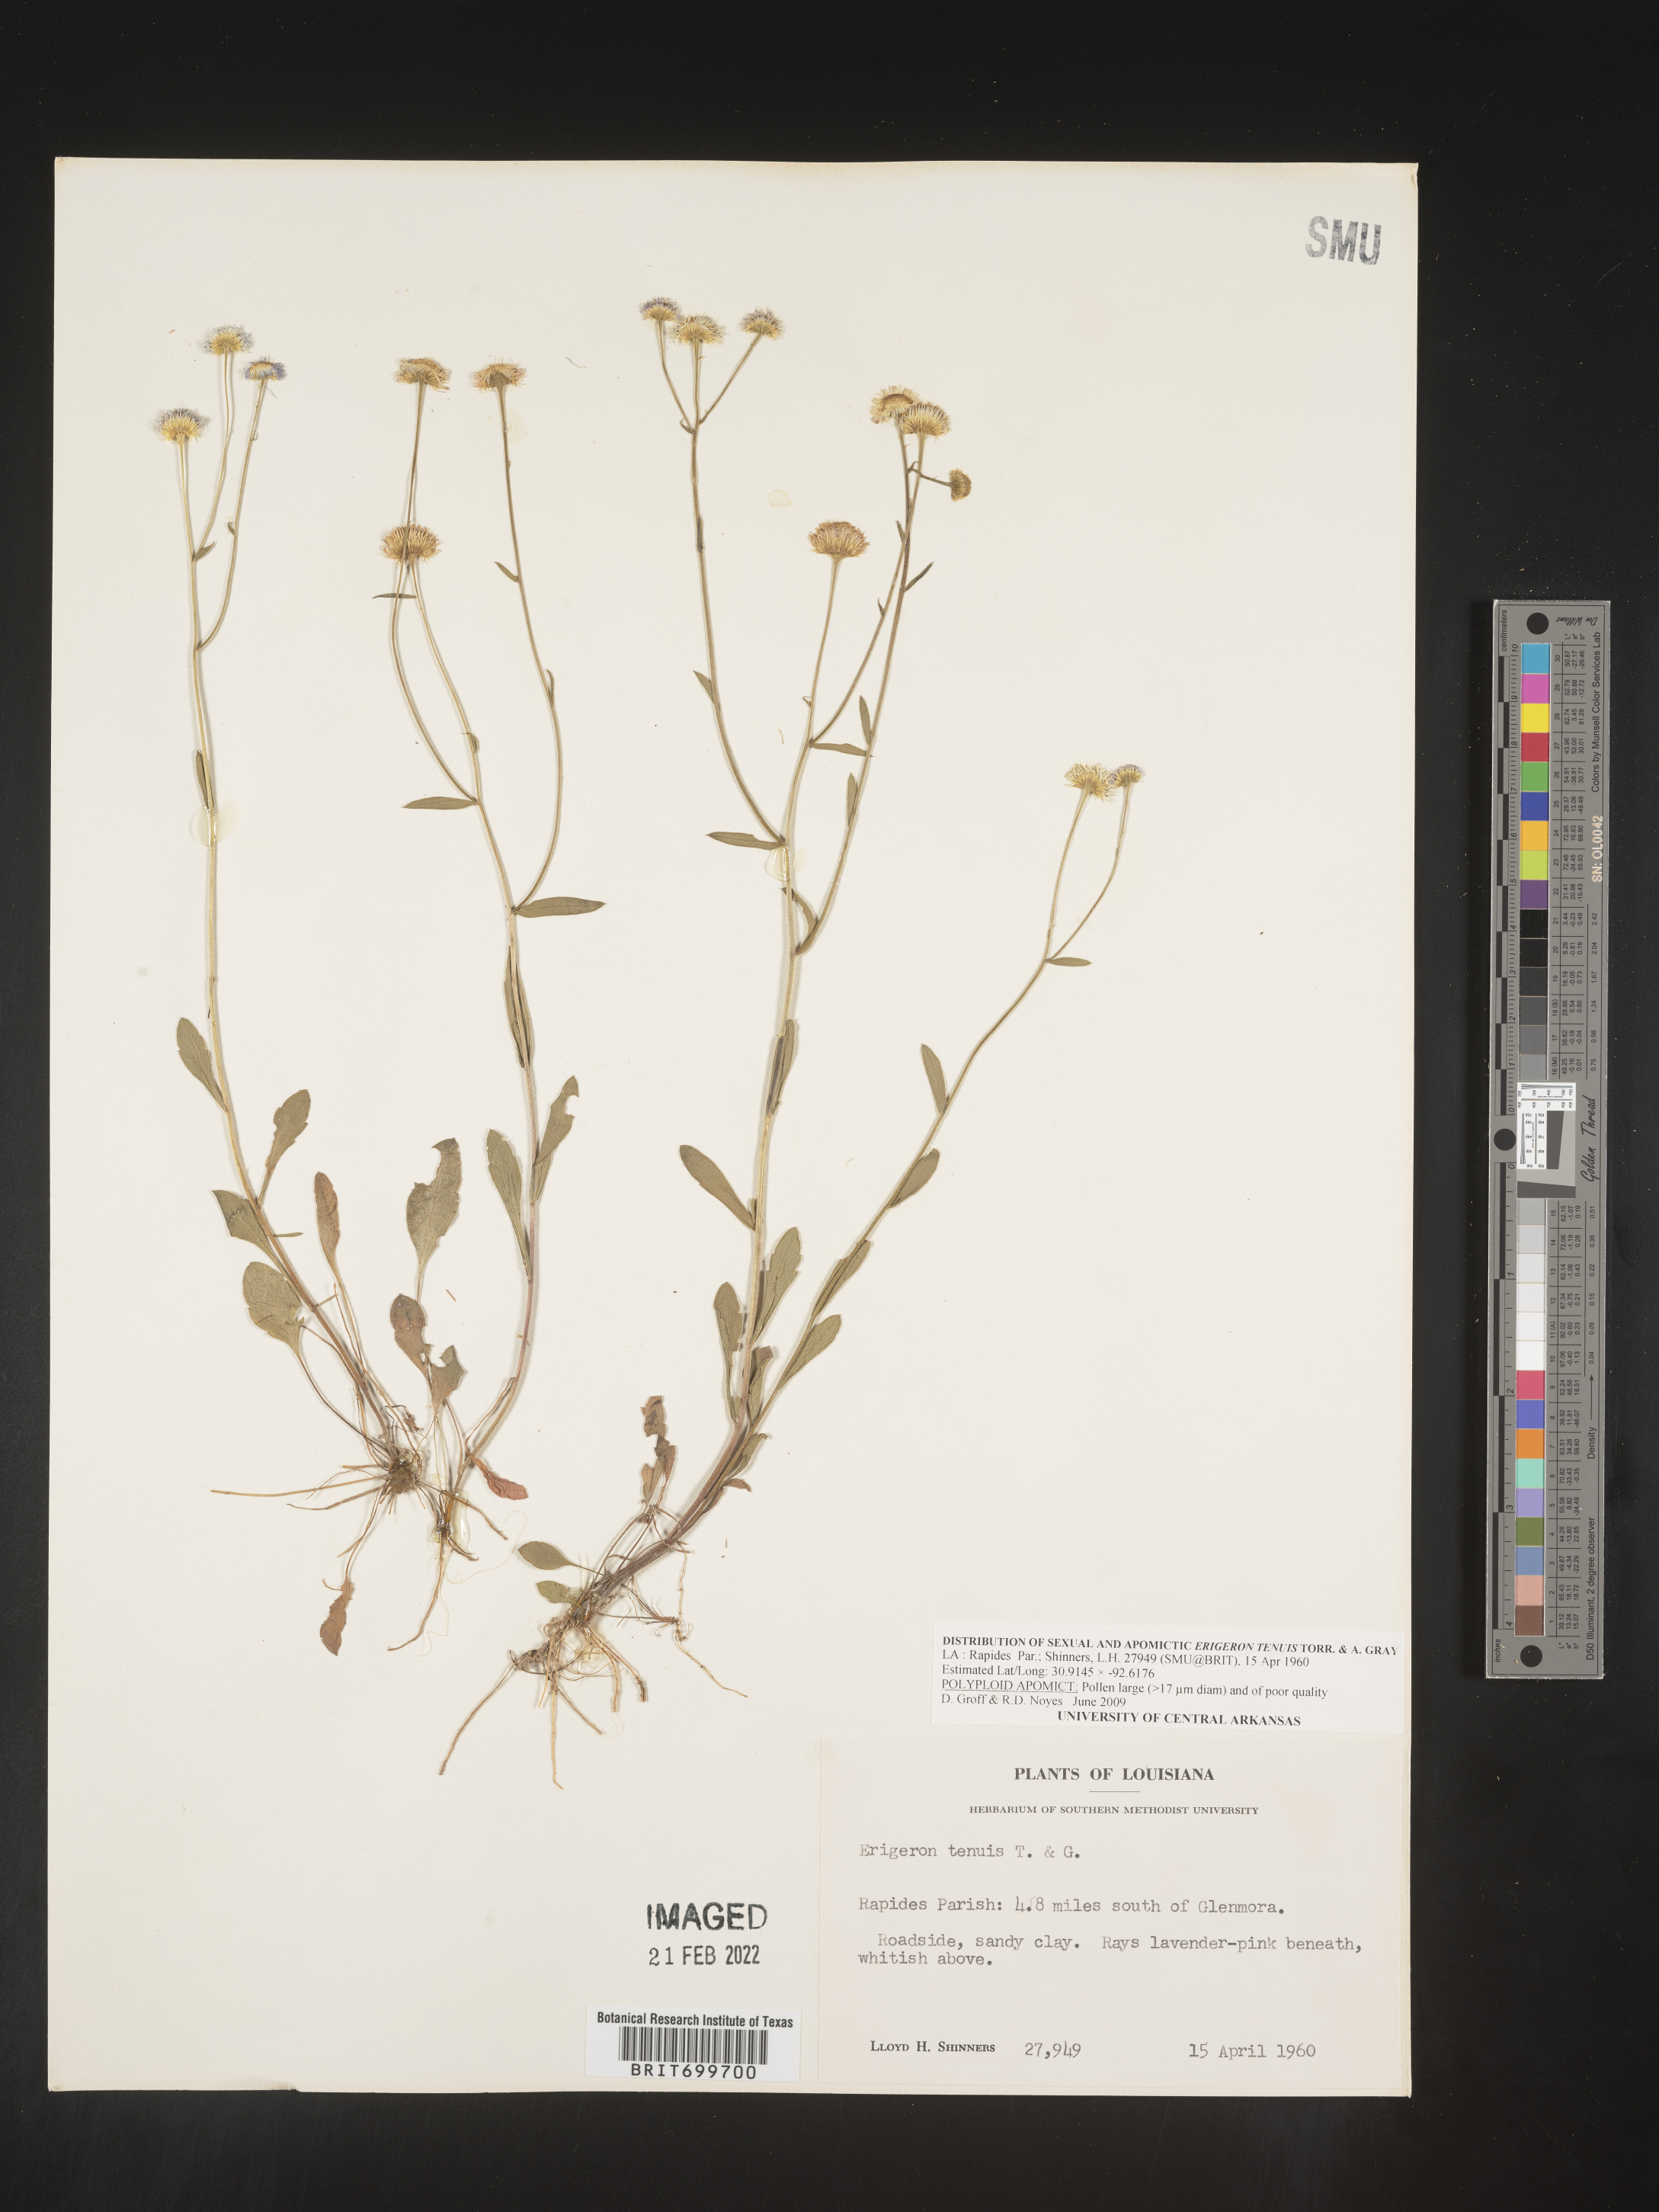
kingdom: Plantae
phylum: Tracheophyta
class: Magnoliopsida
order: Asterales
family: Asteraceae
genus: Erigeron
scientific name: Erigeron tenuis
